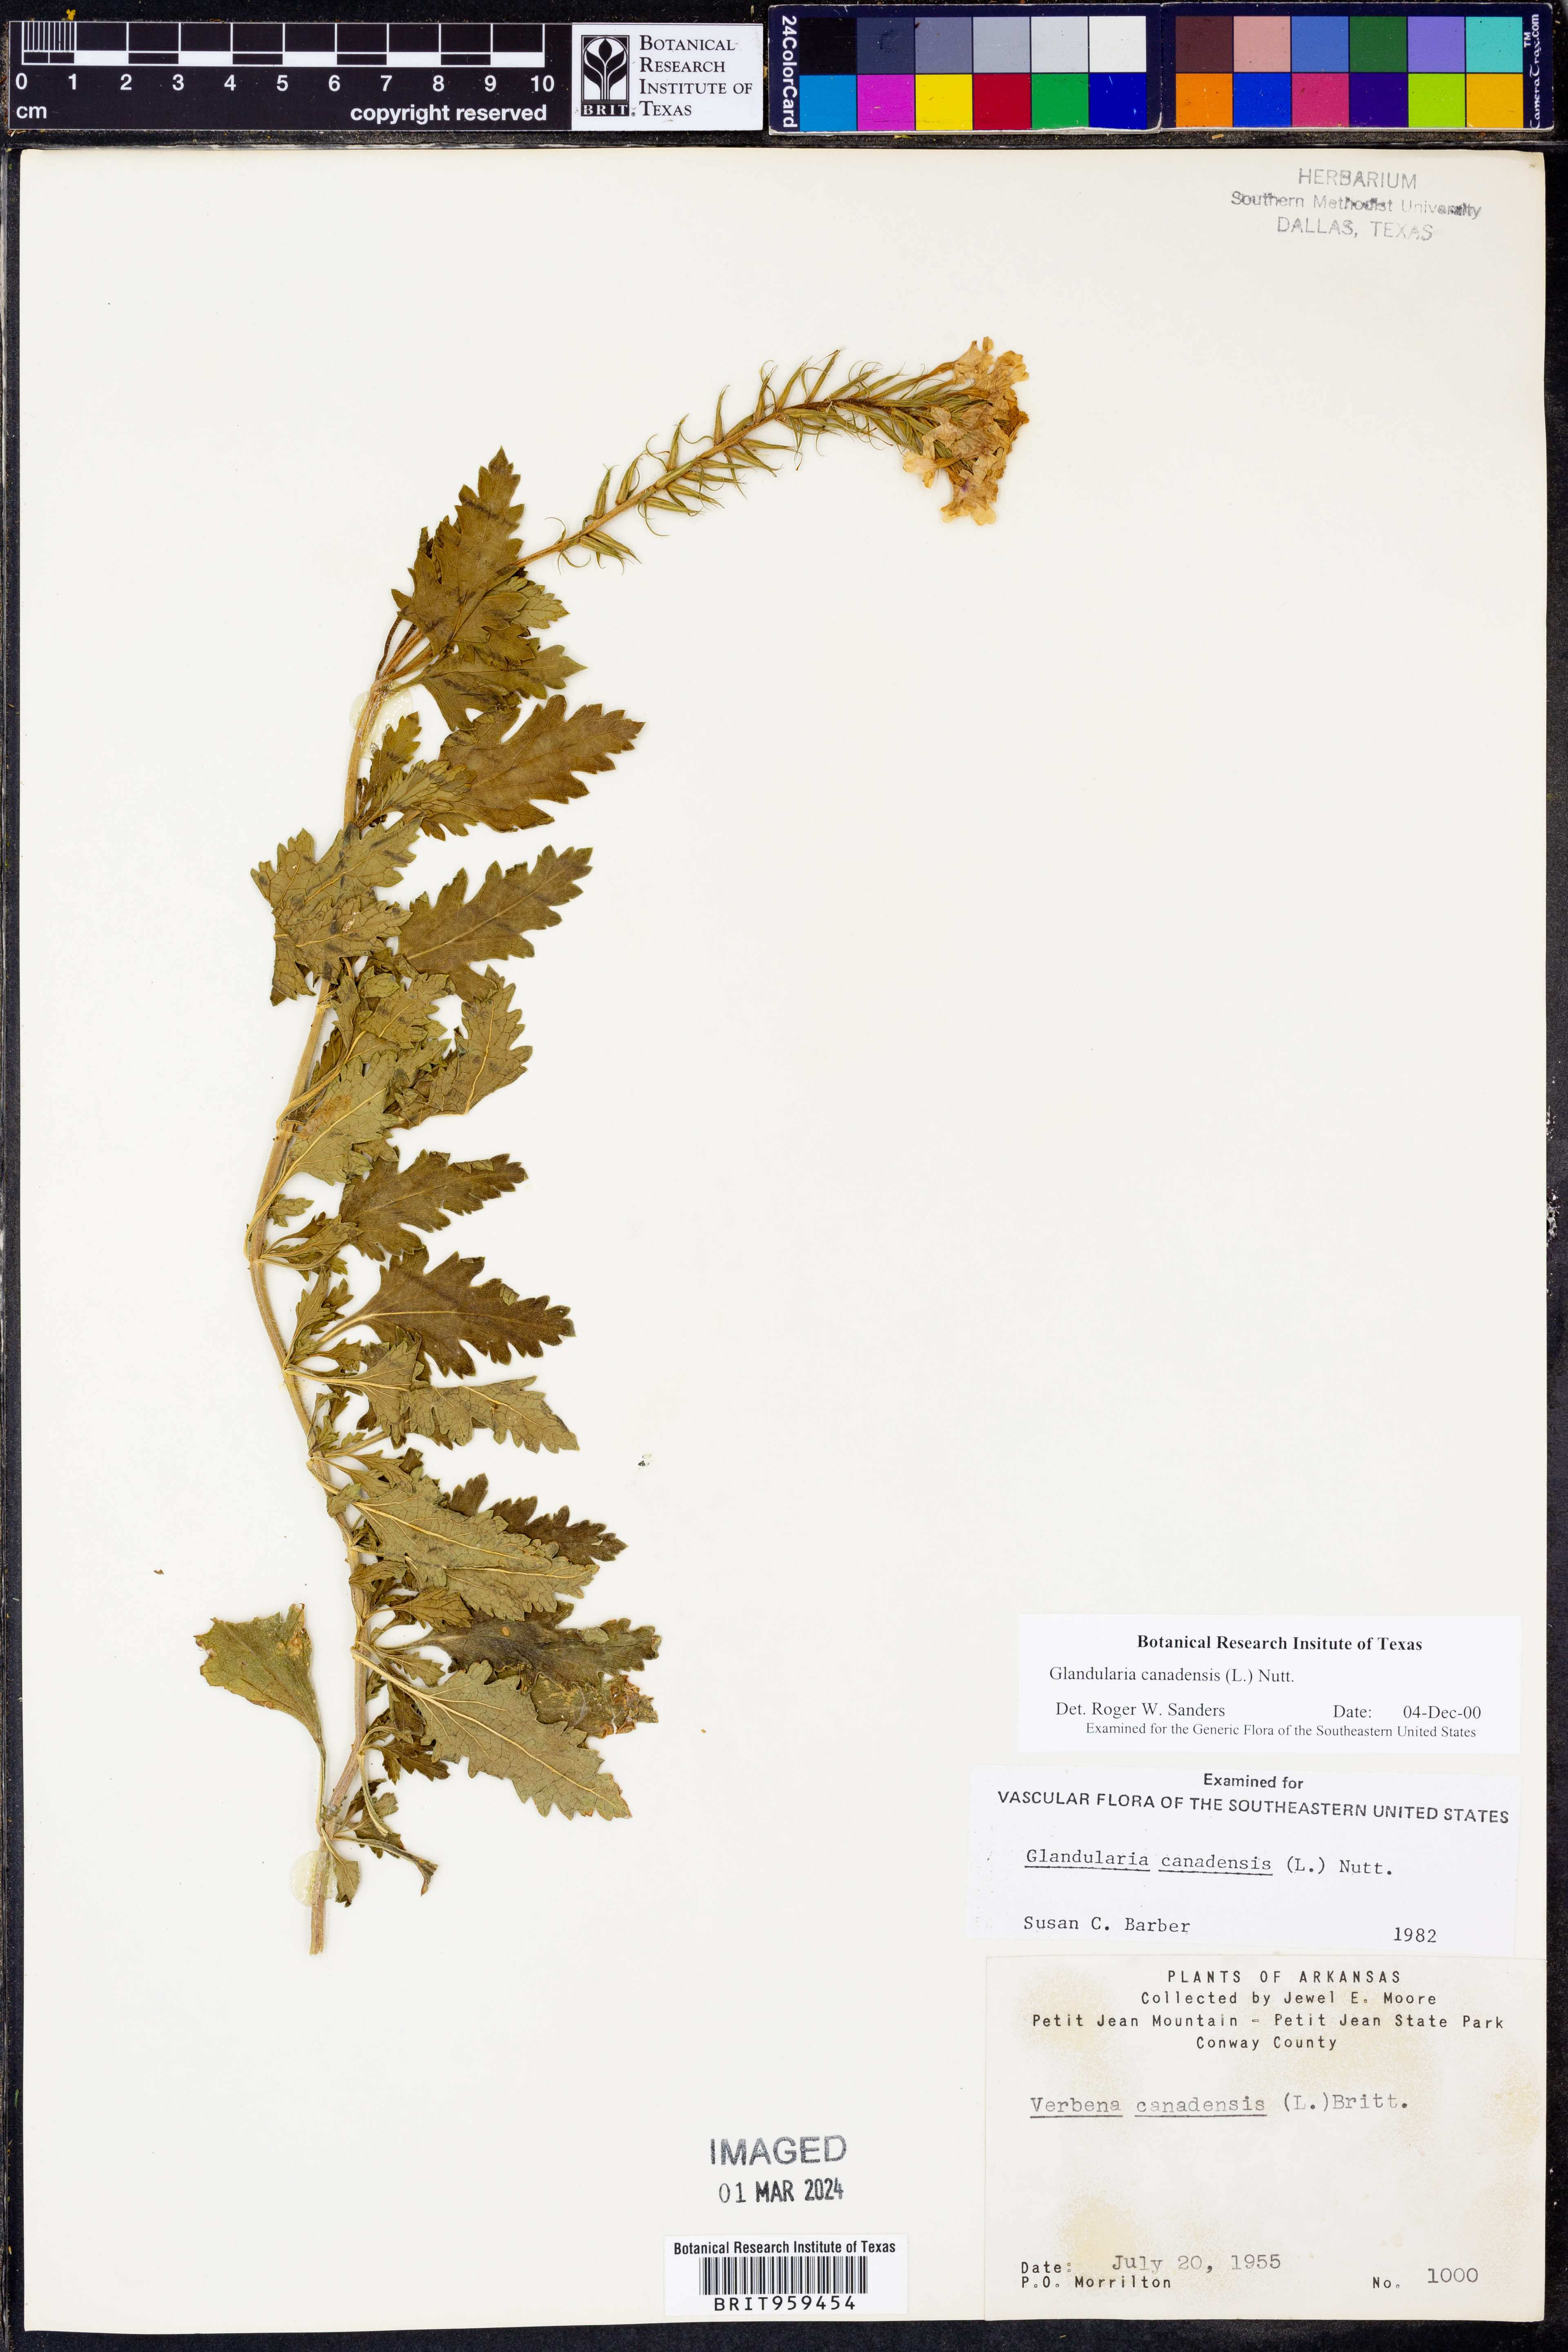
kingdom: Plantae
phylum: Tracheophyta
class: Magnoliopsida
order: Lamiales
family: Verbenaceae
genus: Verbena
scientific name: Verbena canadensis
